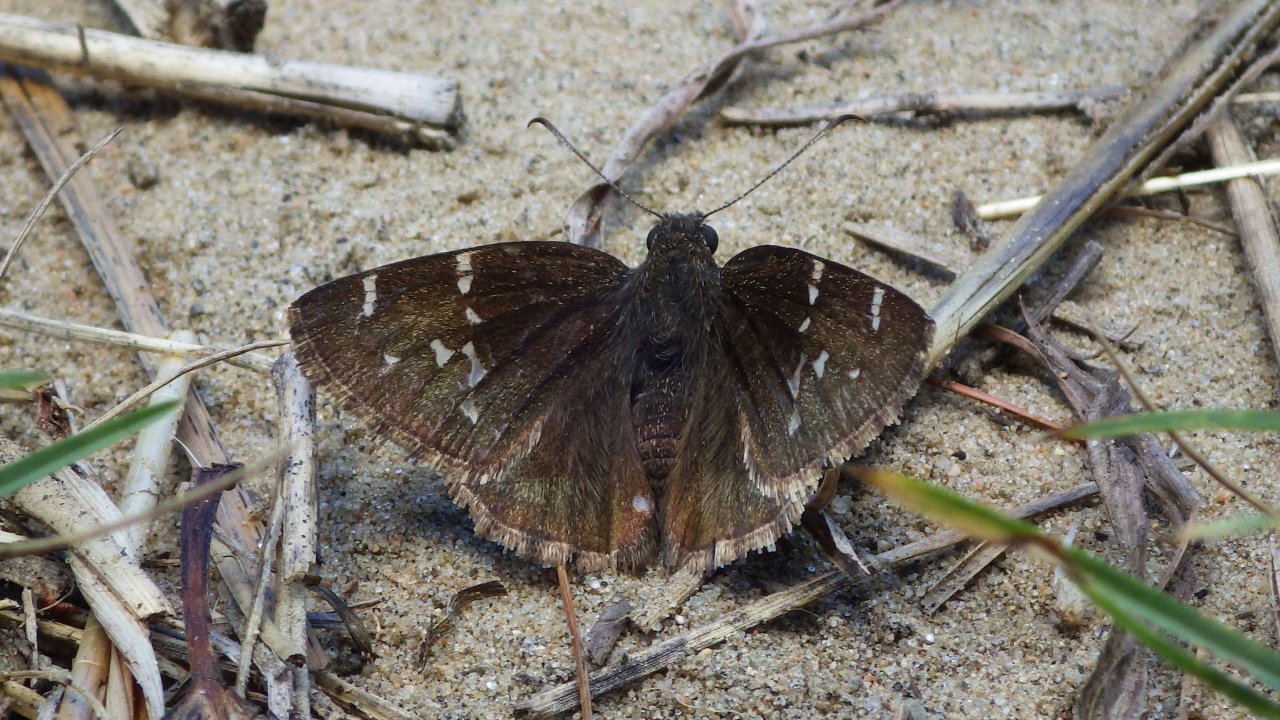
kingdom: Animalia
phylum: Arthropoda
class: Insecta
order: Lepidoptera
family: Hesperiidae
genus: Autochton
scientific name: Autochton
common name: Northern Cloudywing
